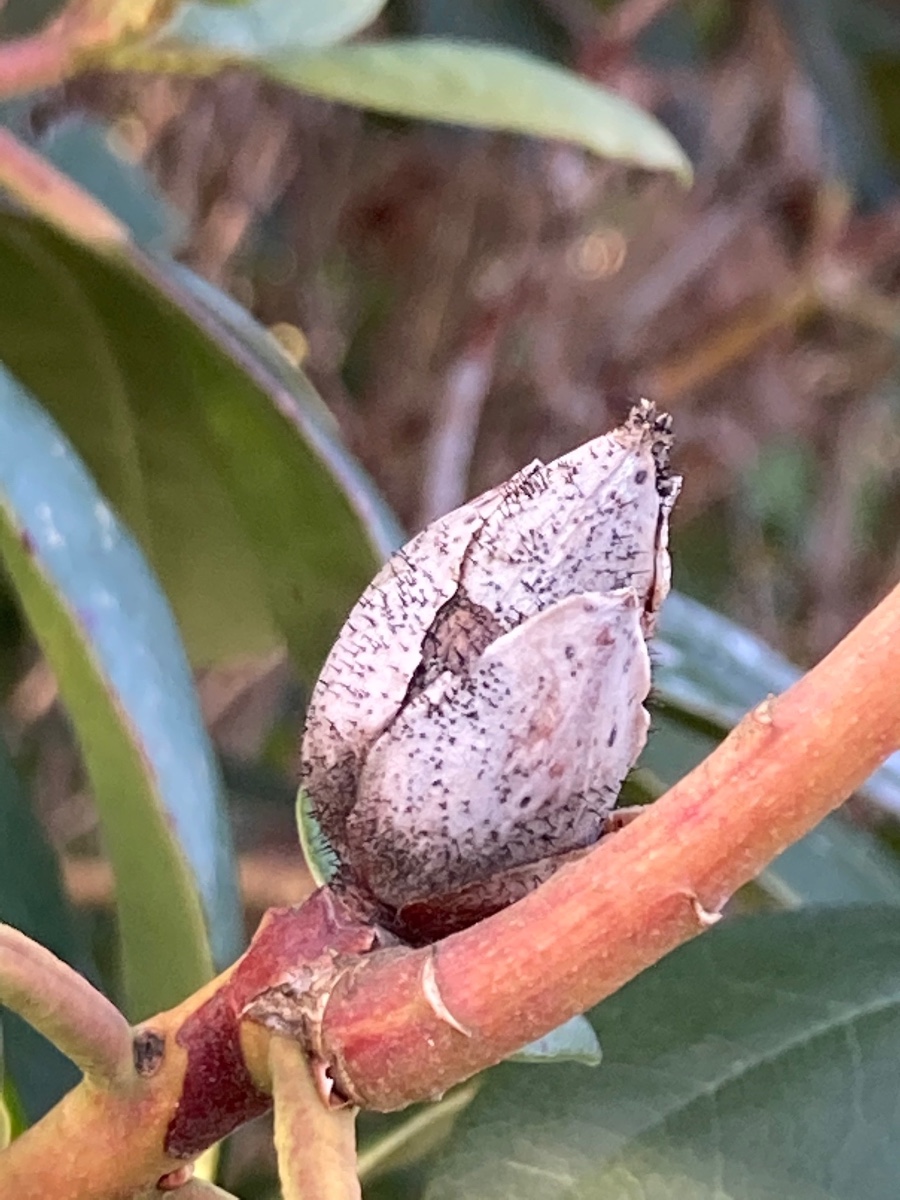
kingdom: Fungi
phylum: Ascomycota
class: Dothideomycetes
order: Pleosporales
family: Melanommataceae
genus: Seifertia
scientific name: Seifertia azaleae
